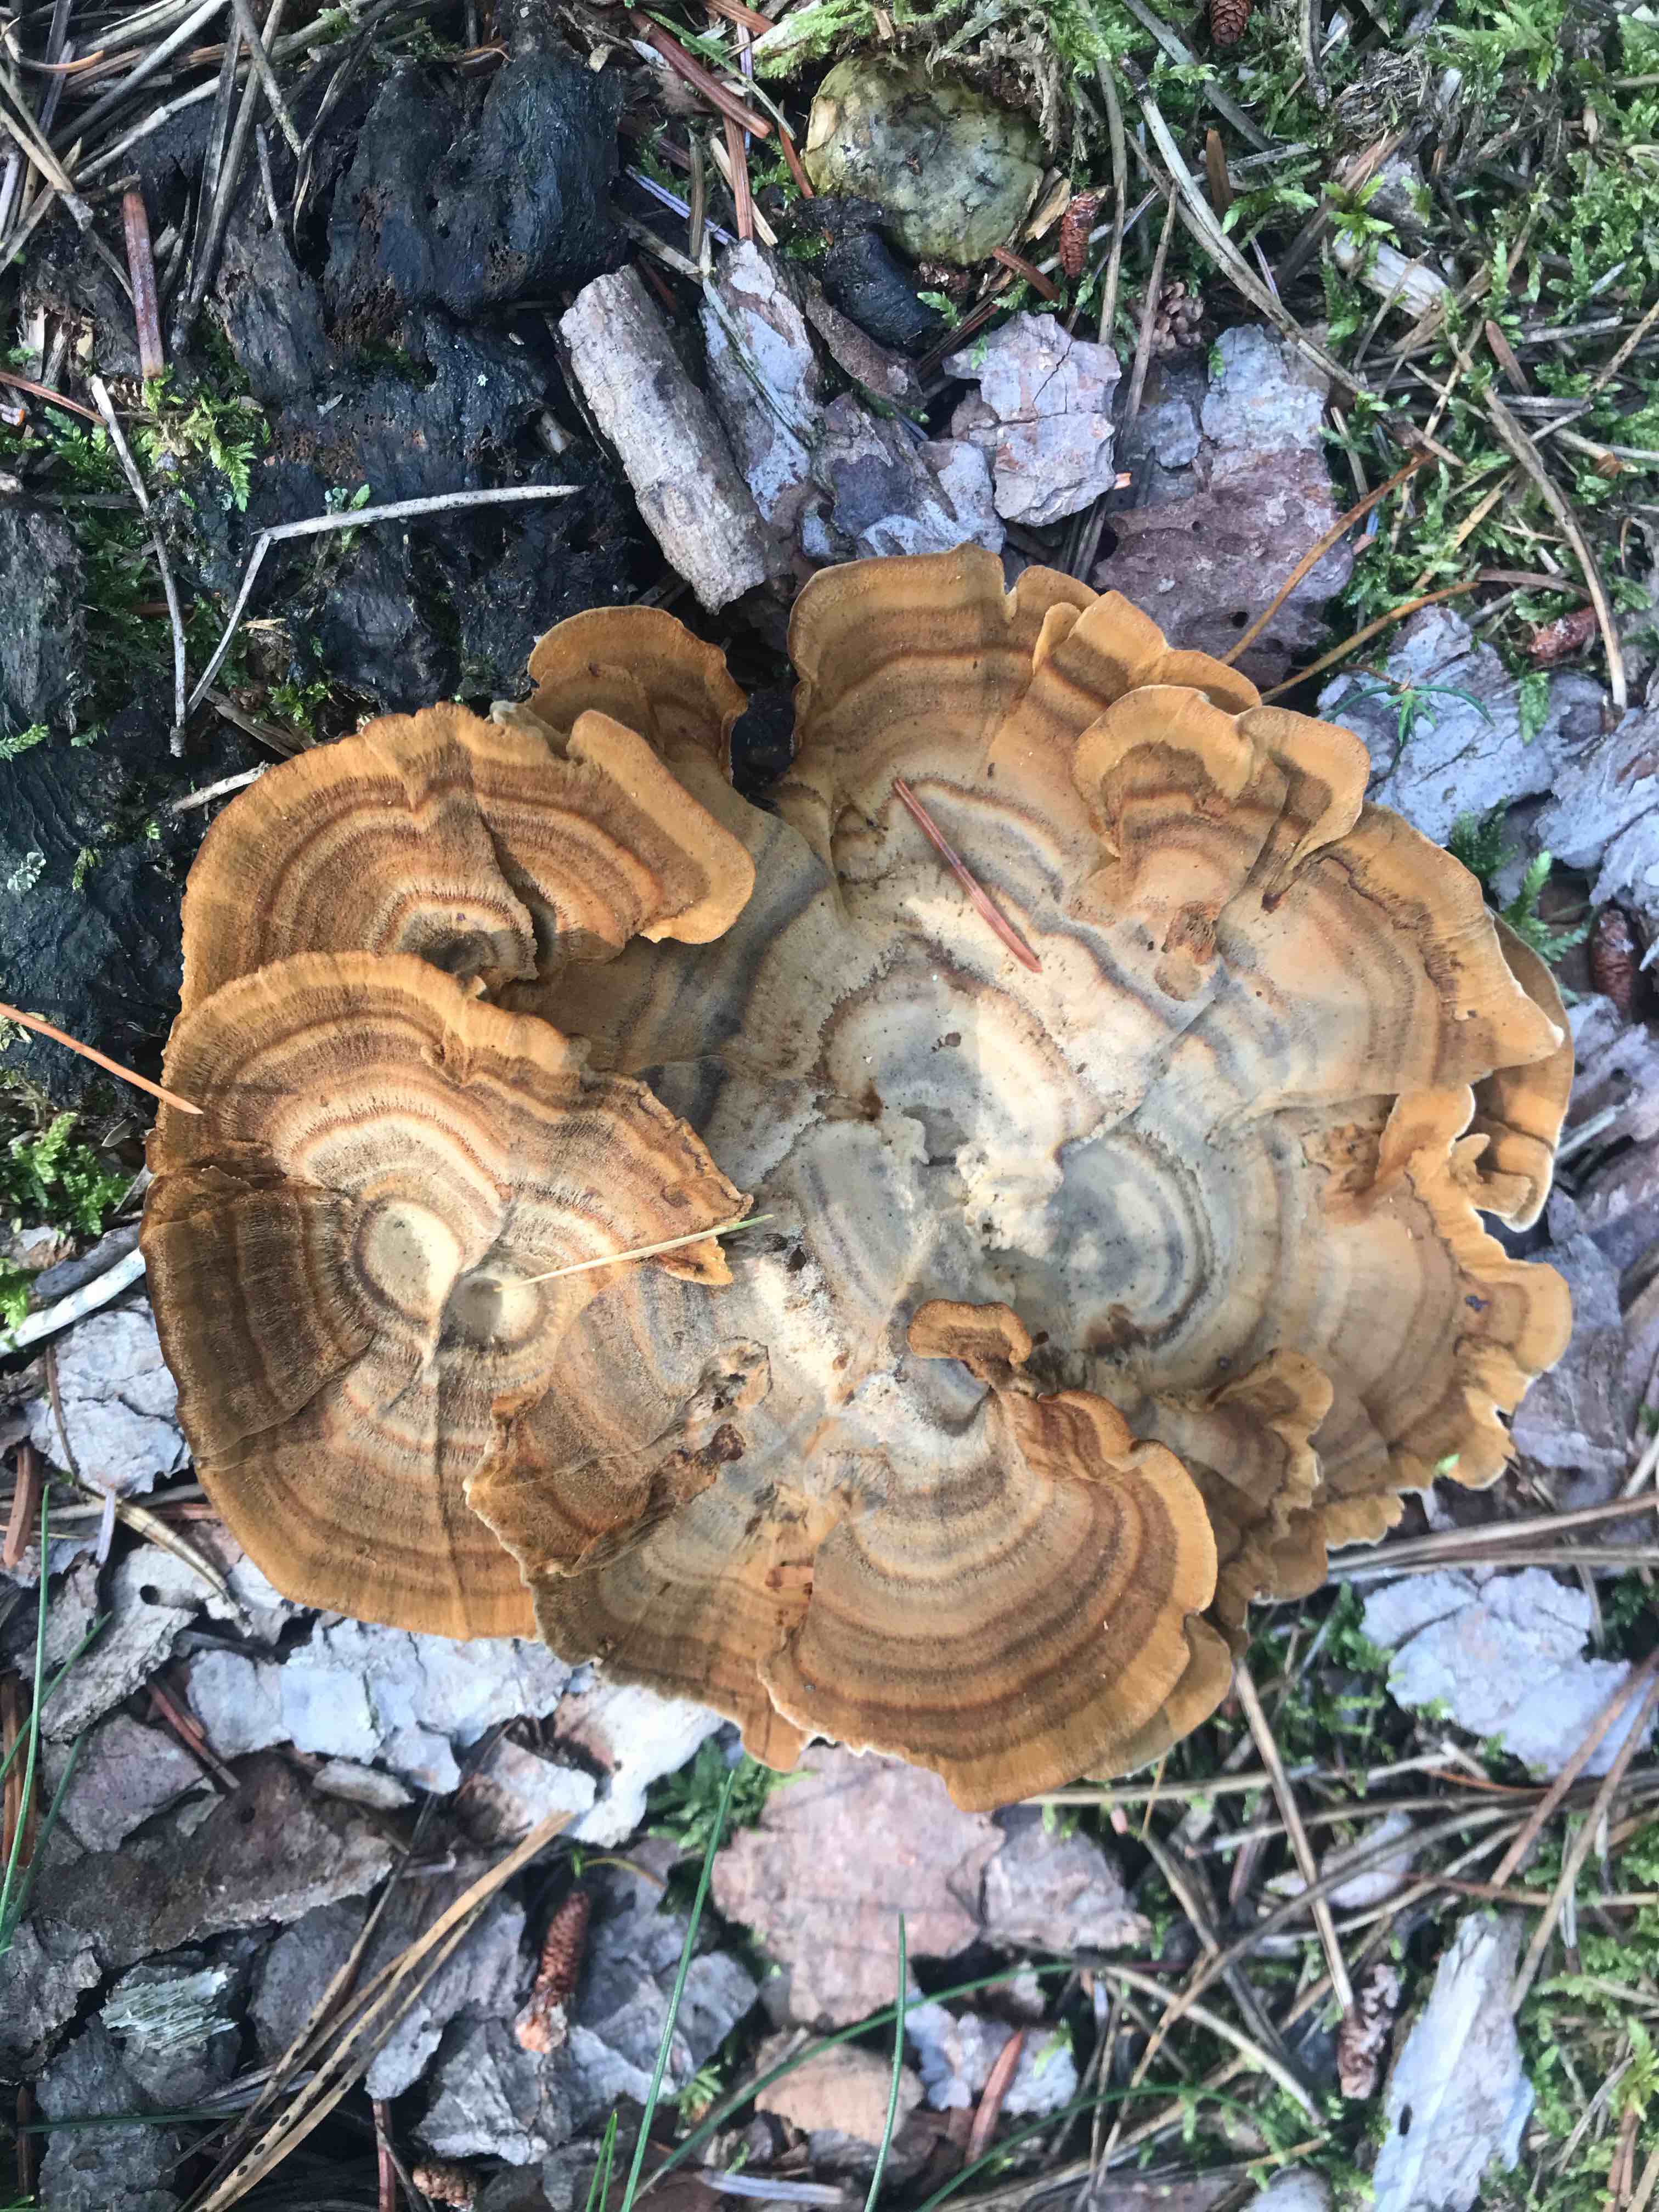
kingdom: Fungi
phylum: Basidiomycota
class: Agaricomycetes
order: Hymenochaetales
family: Hymenochaetaceae
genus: Coltricia
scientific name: Coltricia perennis
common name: almindelig sandporesvamp
